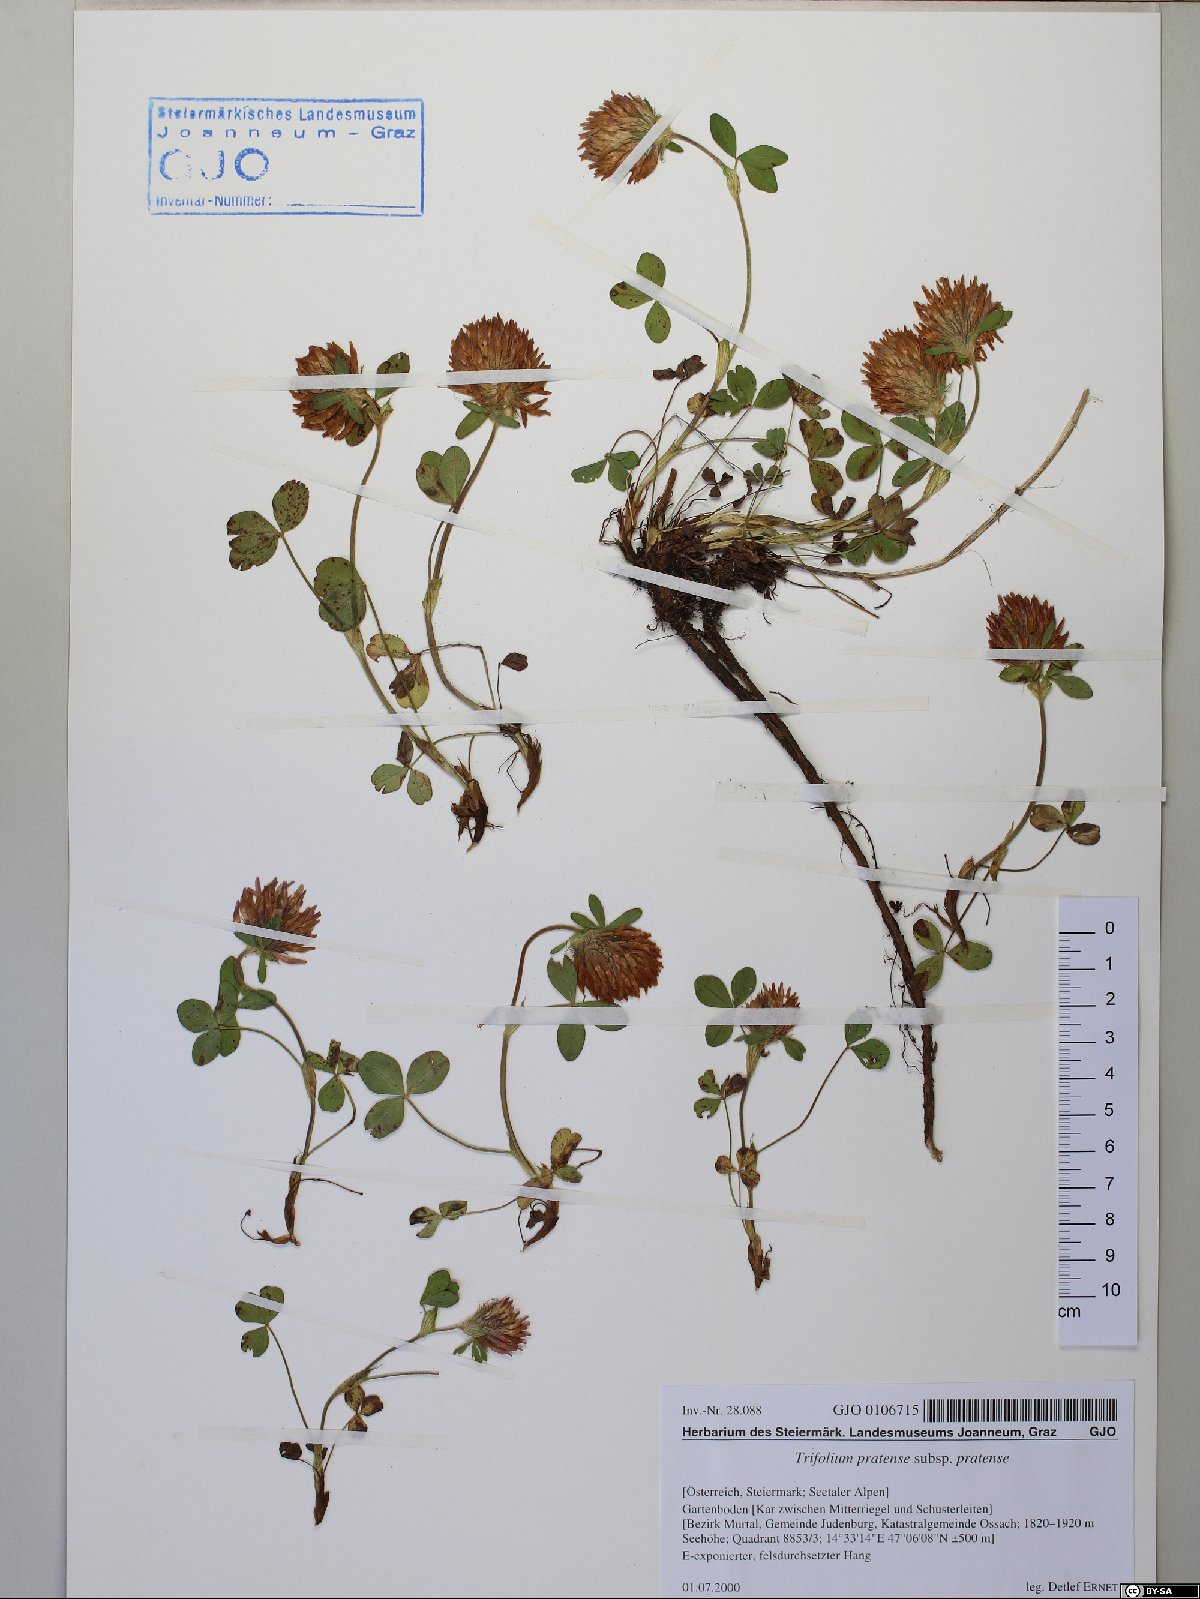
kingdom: Plantae
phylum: Tracheophyta
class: Magnoliopsida
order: Fabales
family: Fabaceae
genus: Trifolium
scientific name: Trifolium pratense
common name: Red clover
